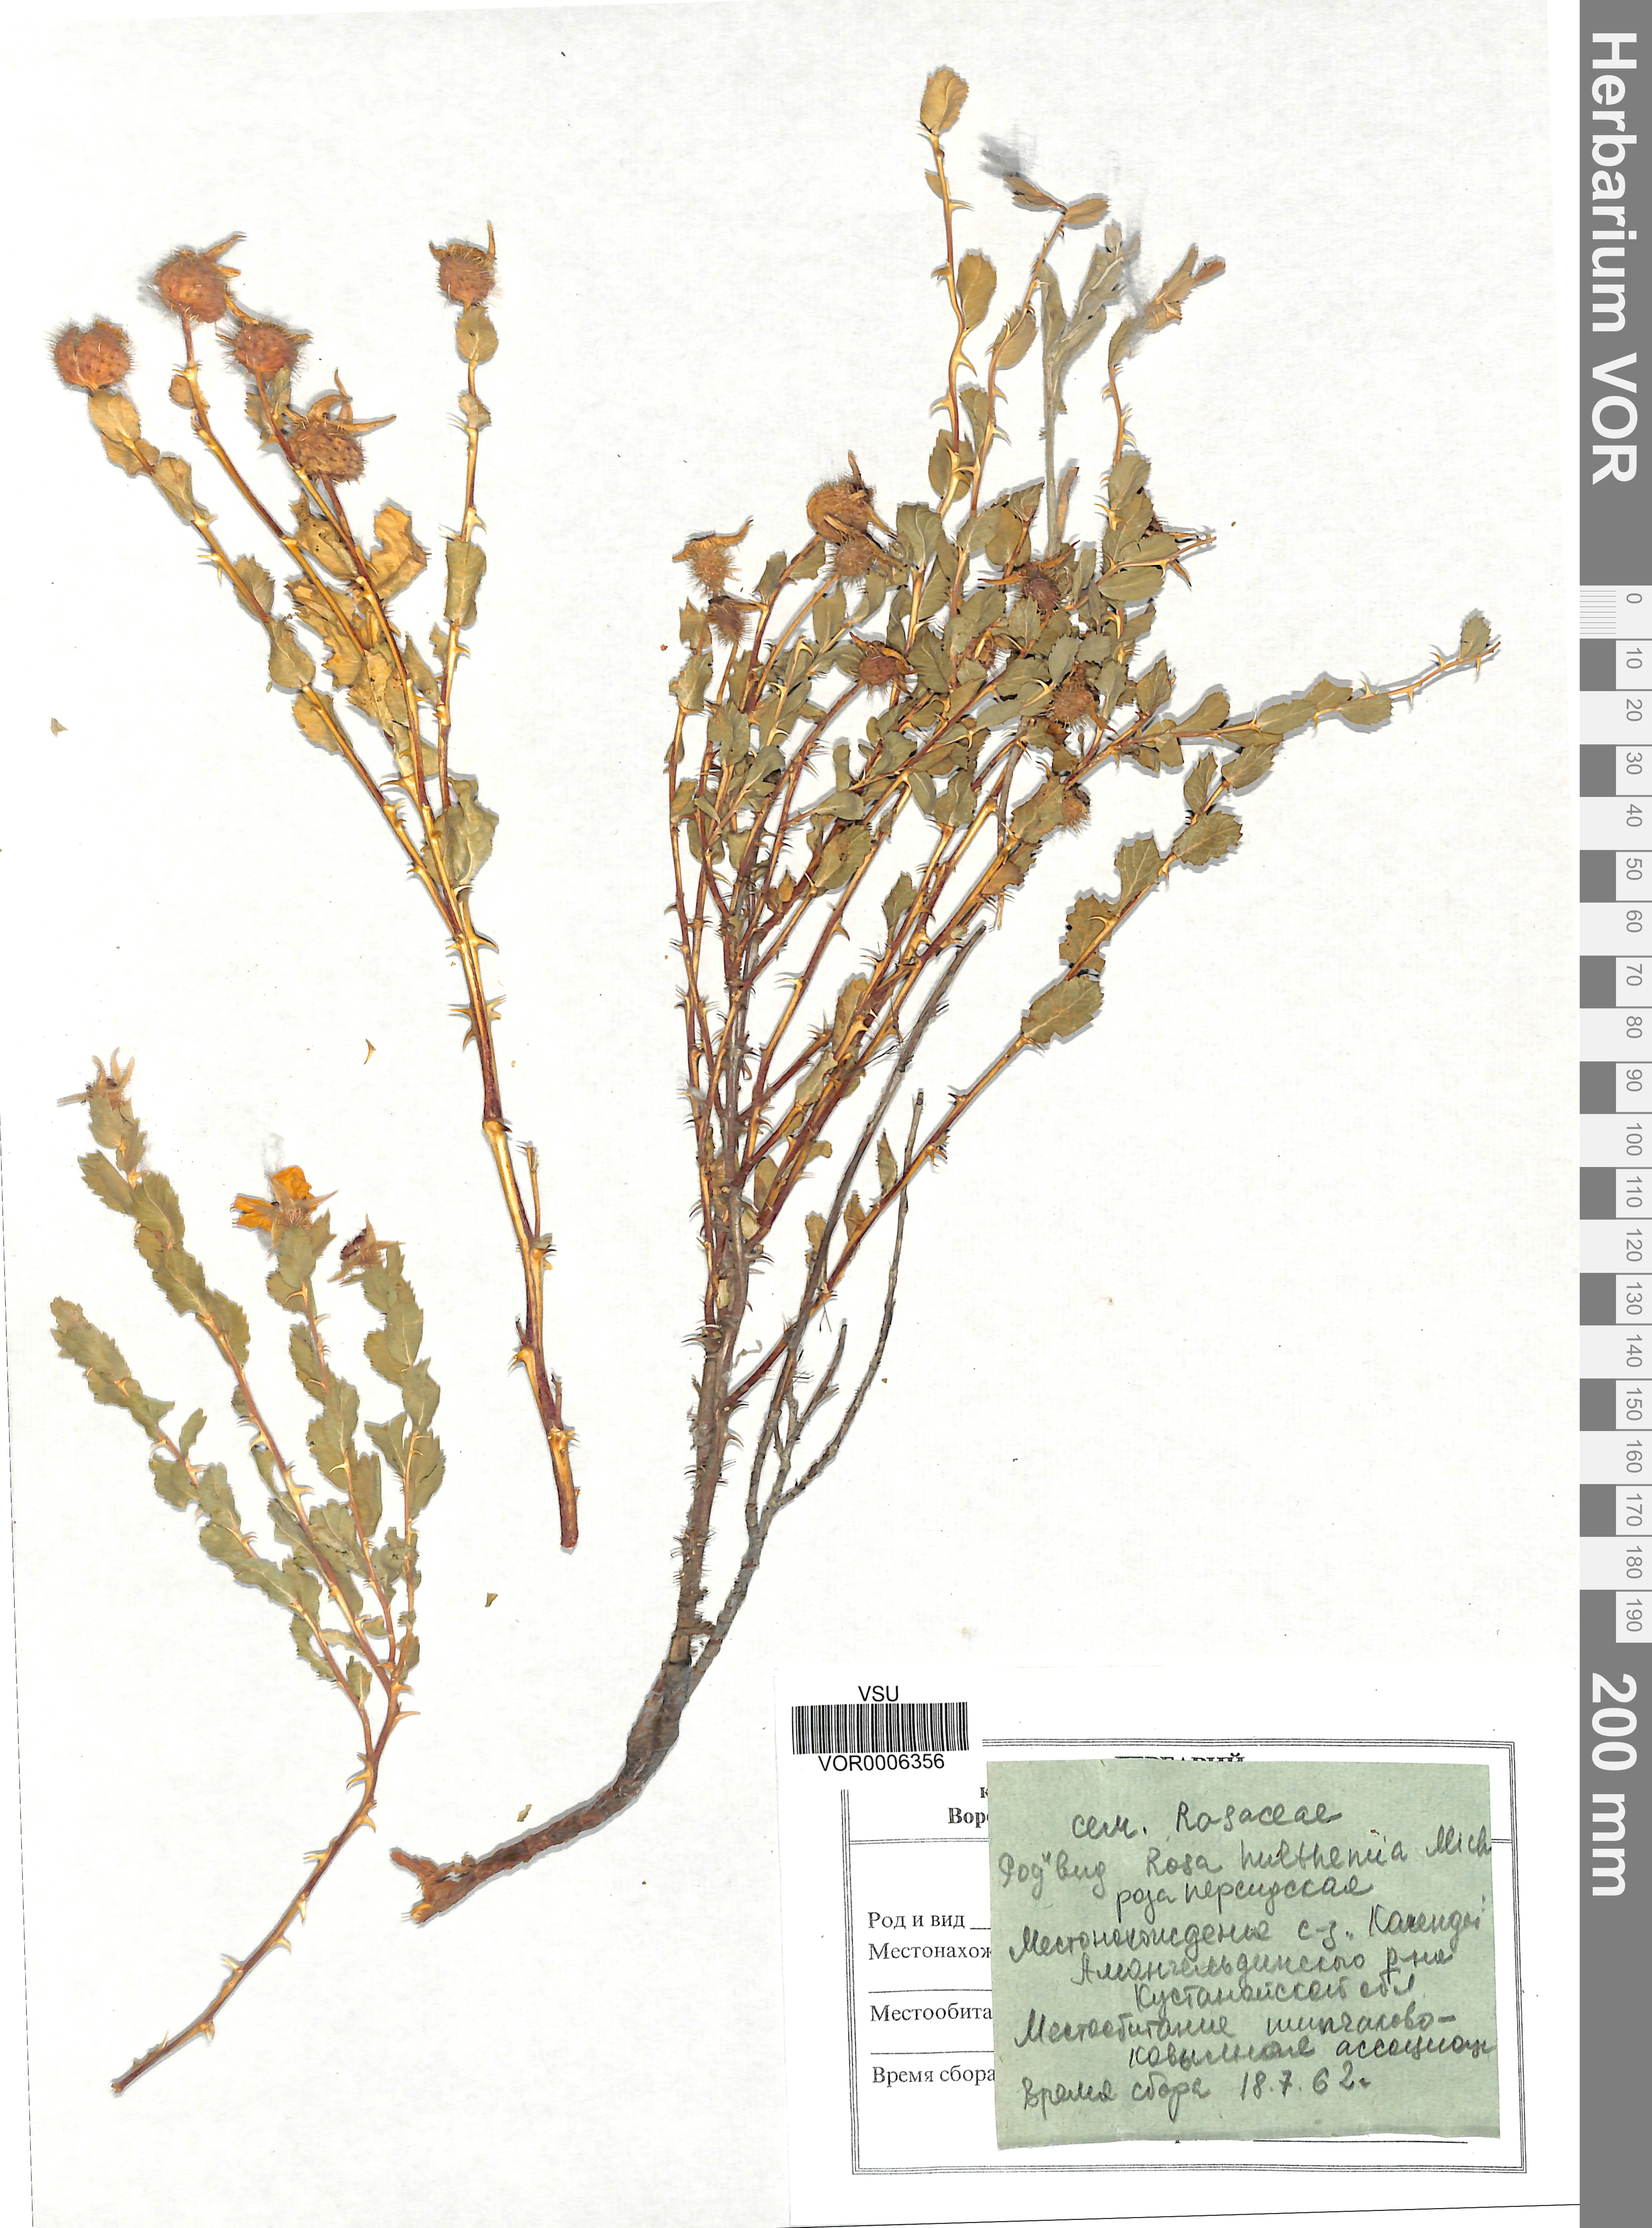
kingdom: Plantae
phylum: Tracheophyta
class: Magnoliopsida
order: Rosales
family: Rosaceae
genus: Rosa
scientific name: Rosa persica
